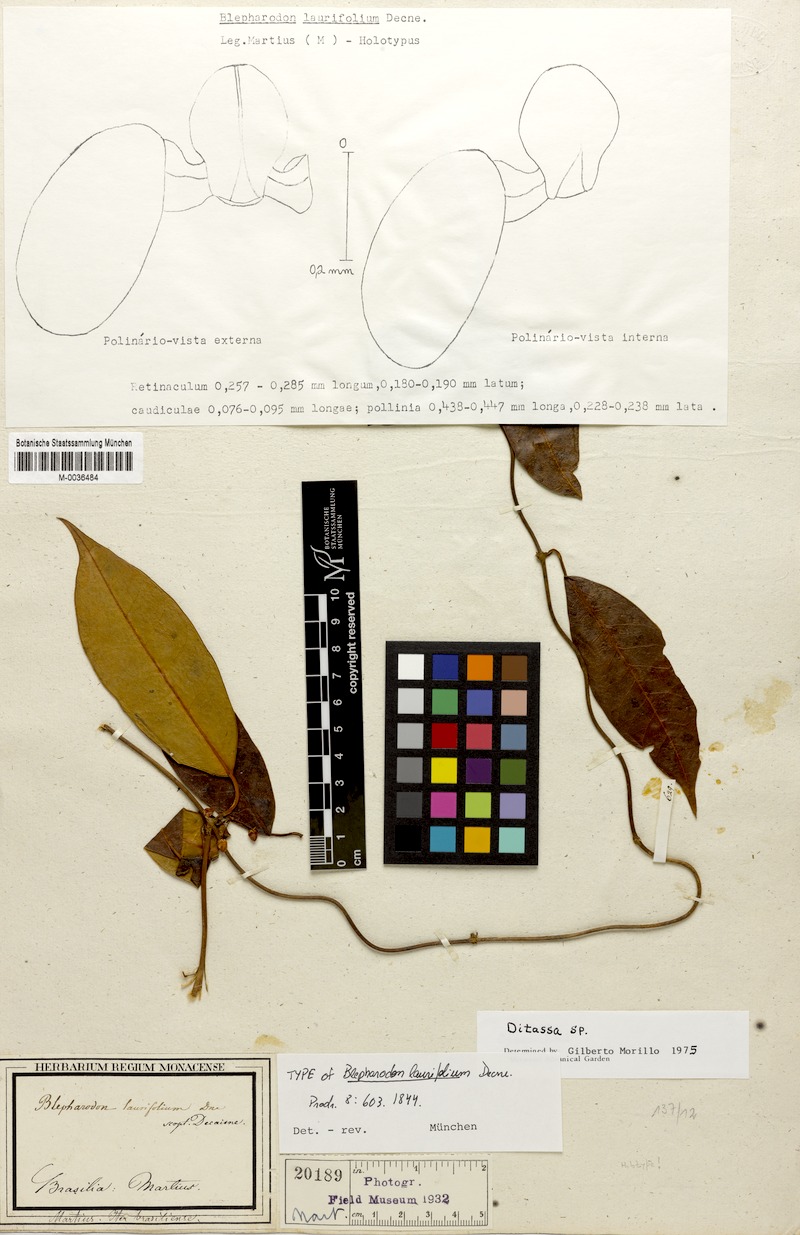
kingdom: Plantae
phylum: Tracheophyta
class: Magnoliopsida
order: Gentianales
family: Apocynaceae
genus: Nephradenia
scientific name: Nephradenia laurifolia
